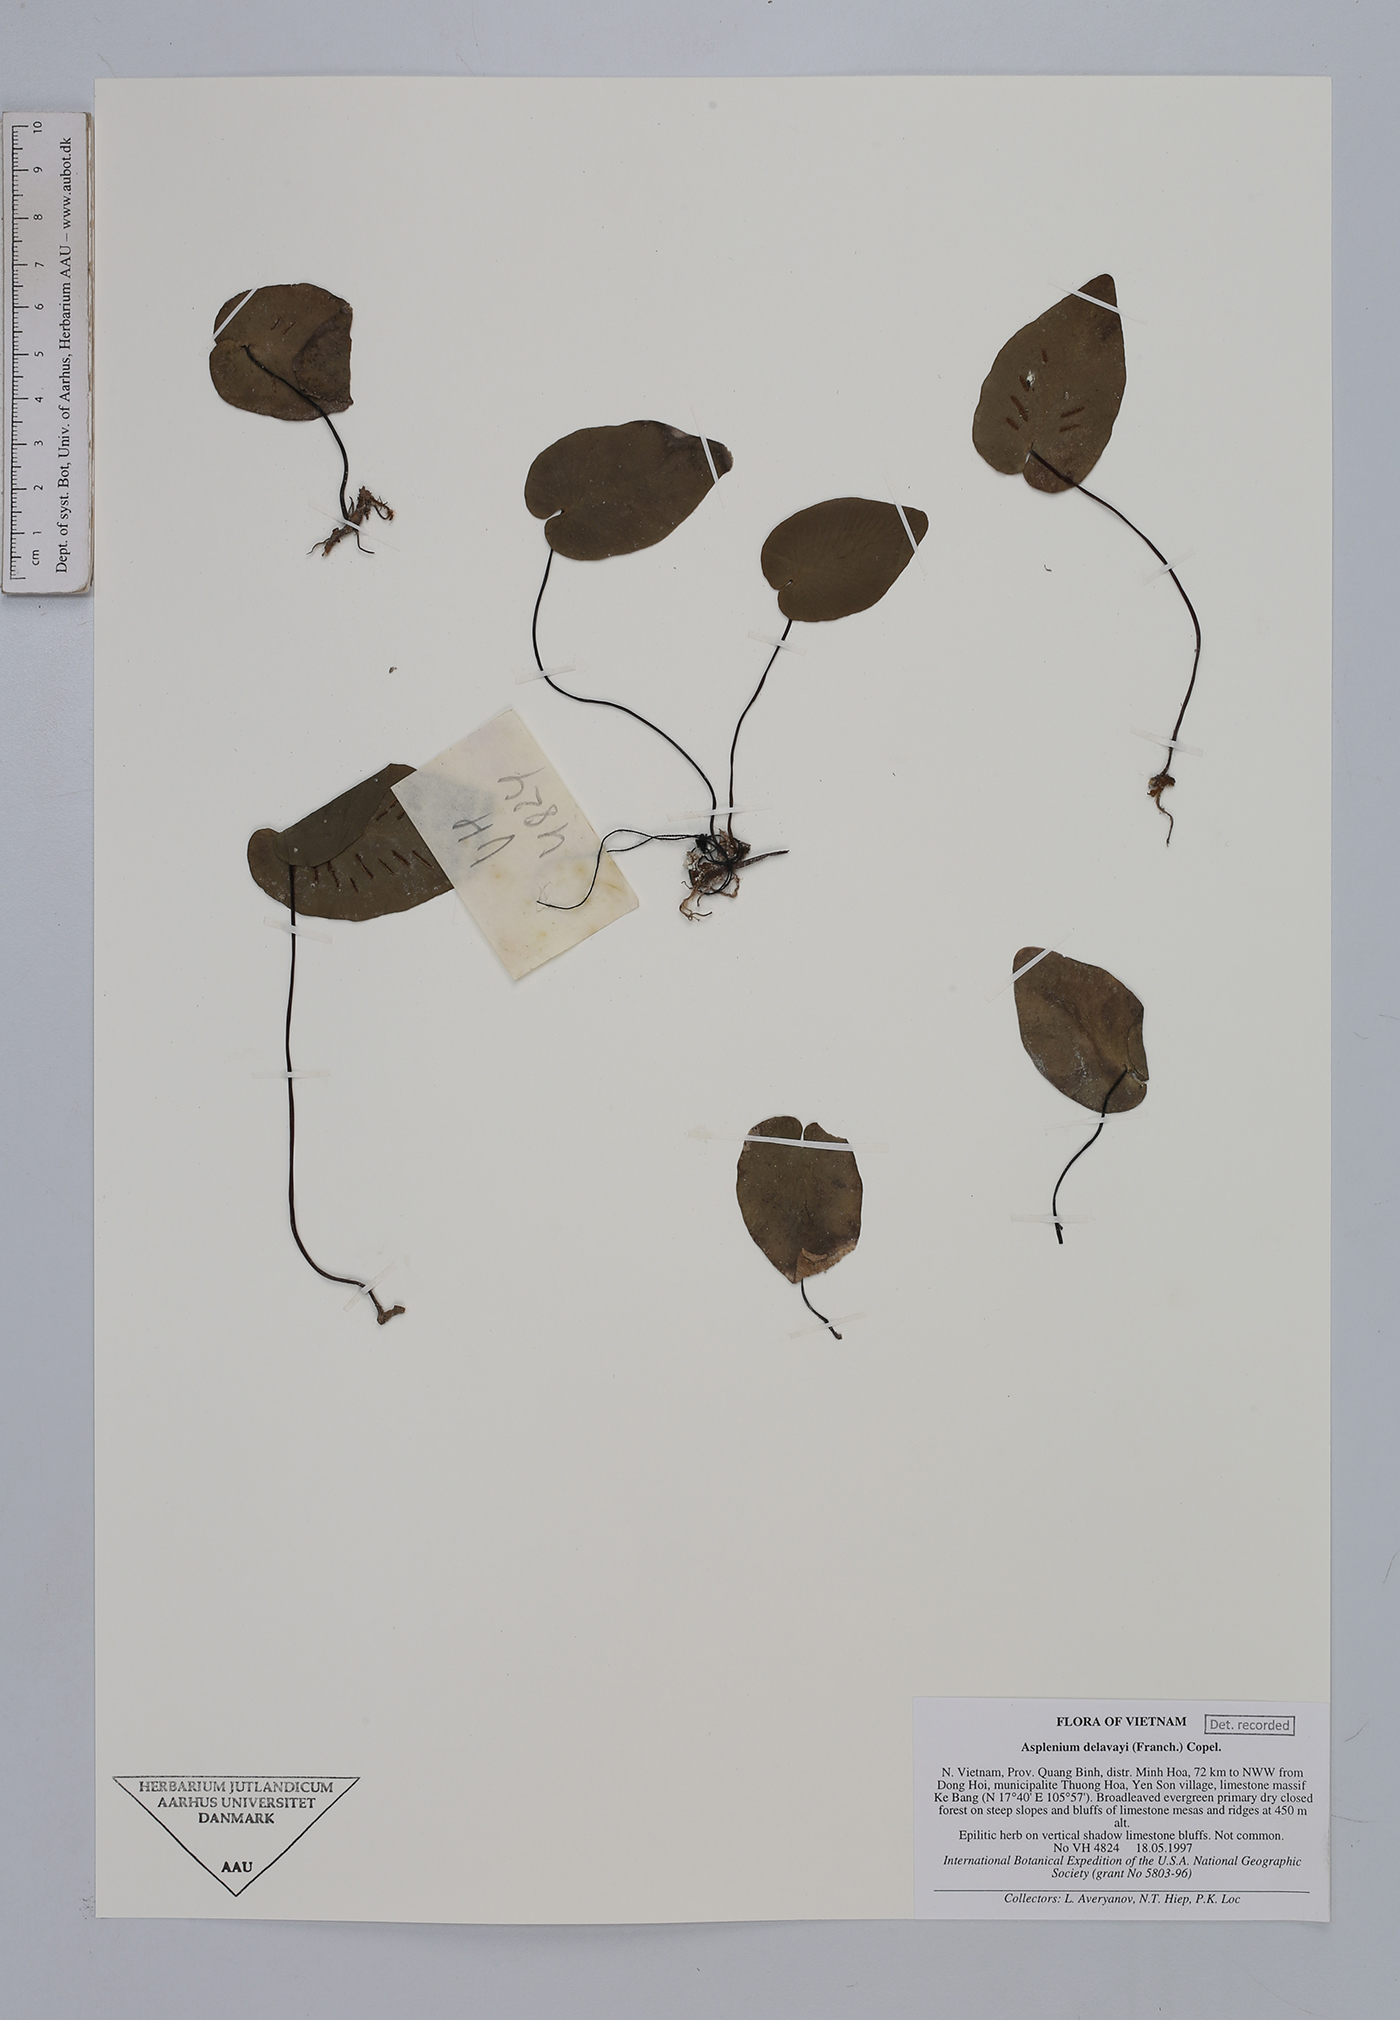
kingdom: Plantae
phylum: Tracheophyta
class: Polypodiopsida
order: Polypodiales
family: Aspleniaceae
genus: Asplenium
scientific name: Asplenium delavayi
